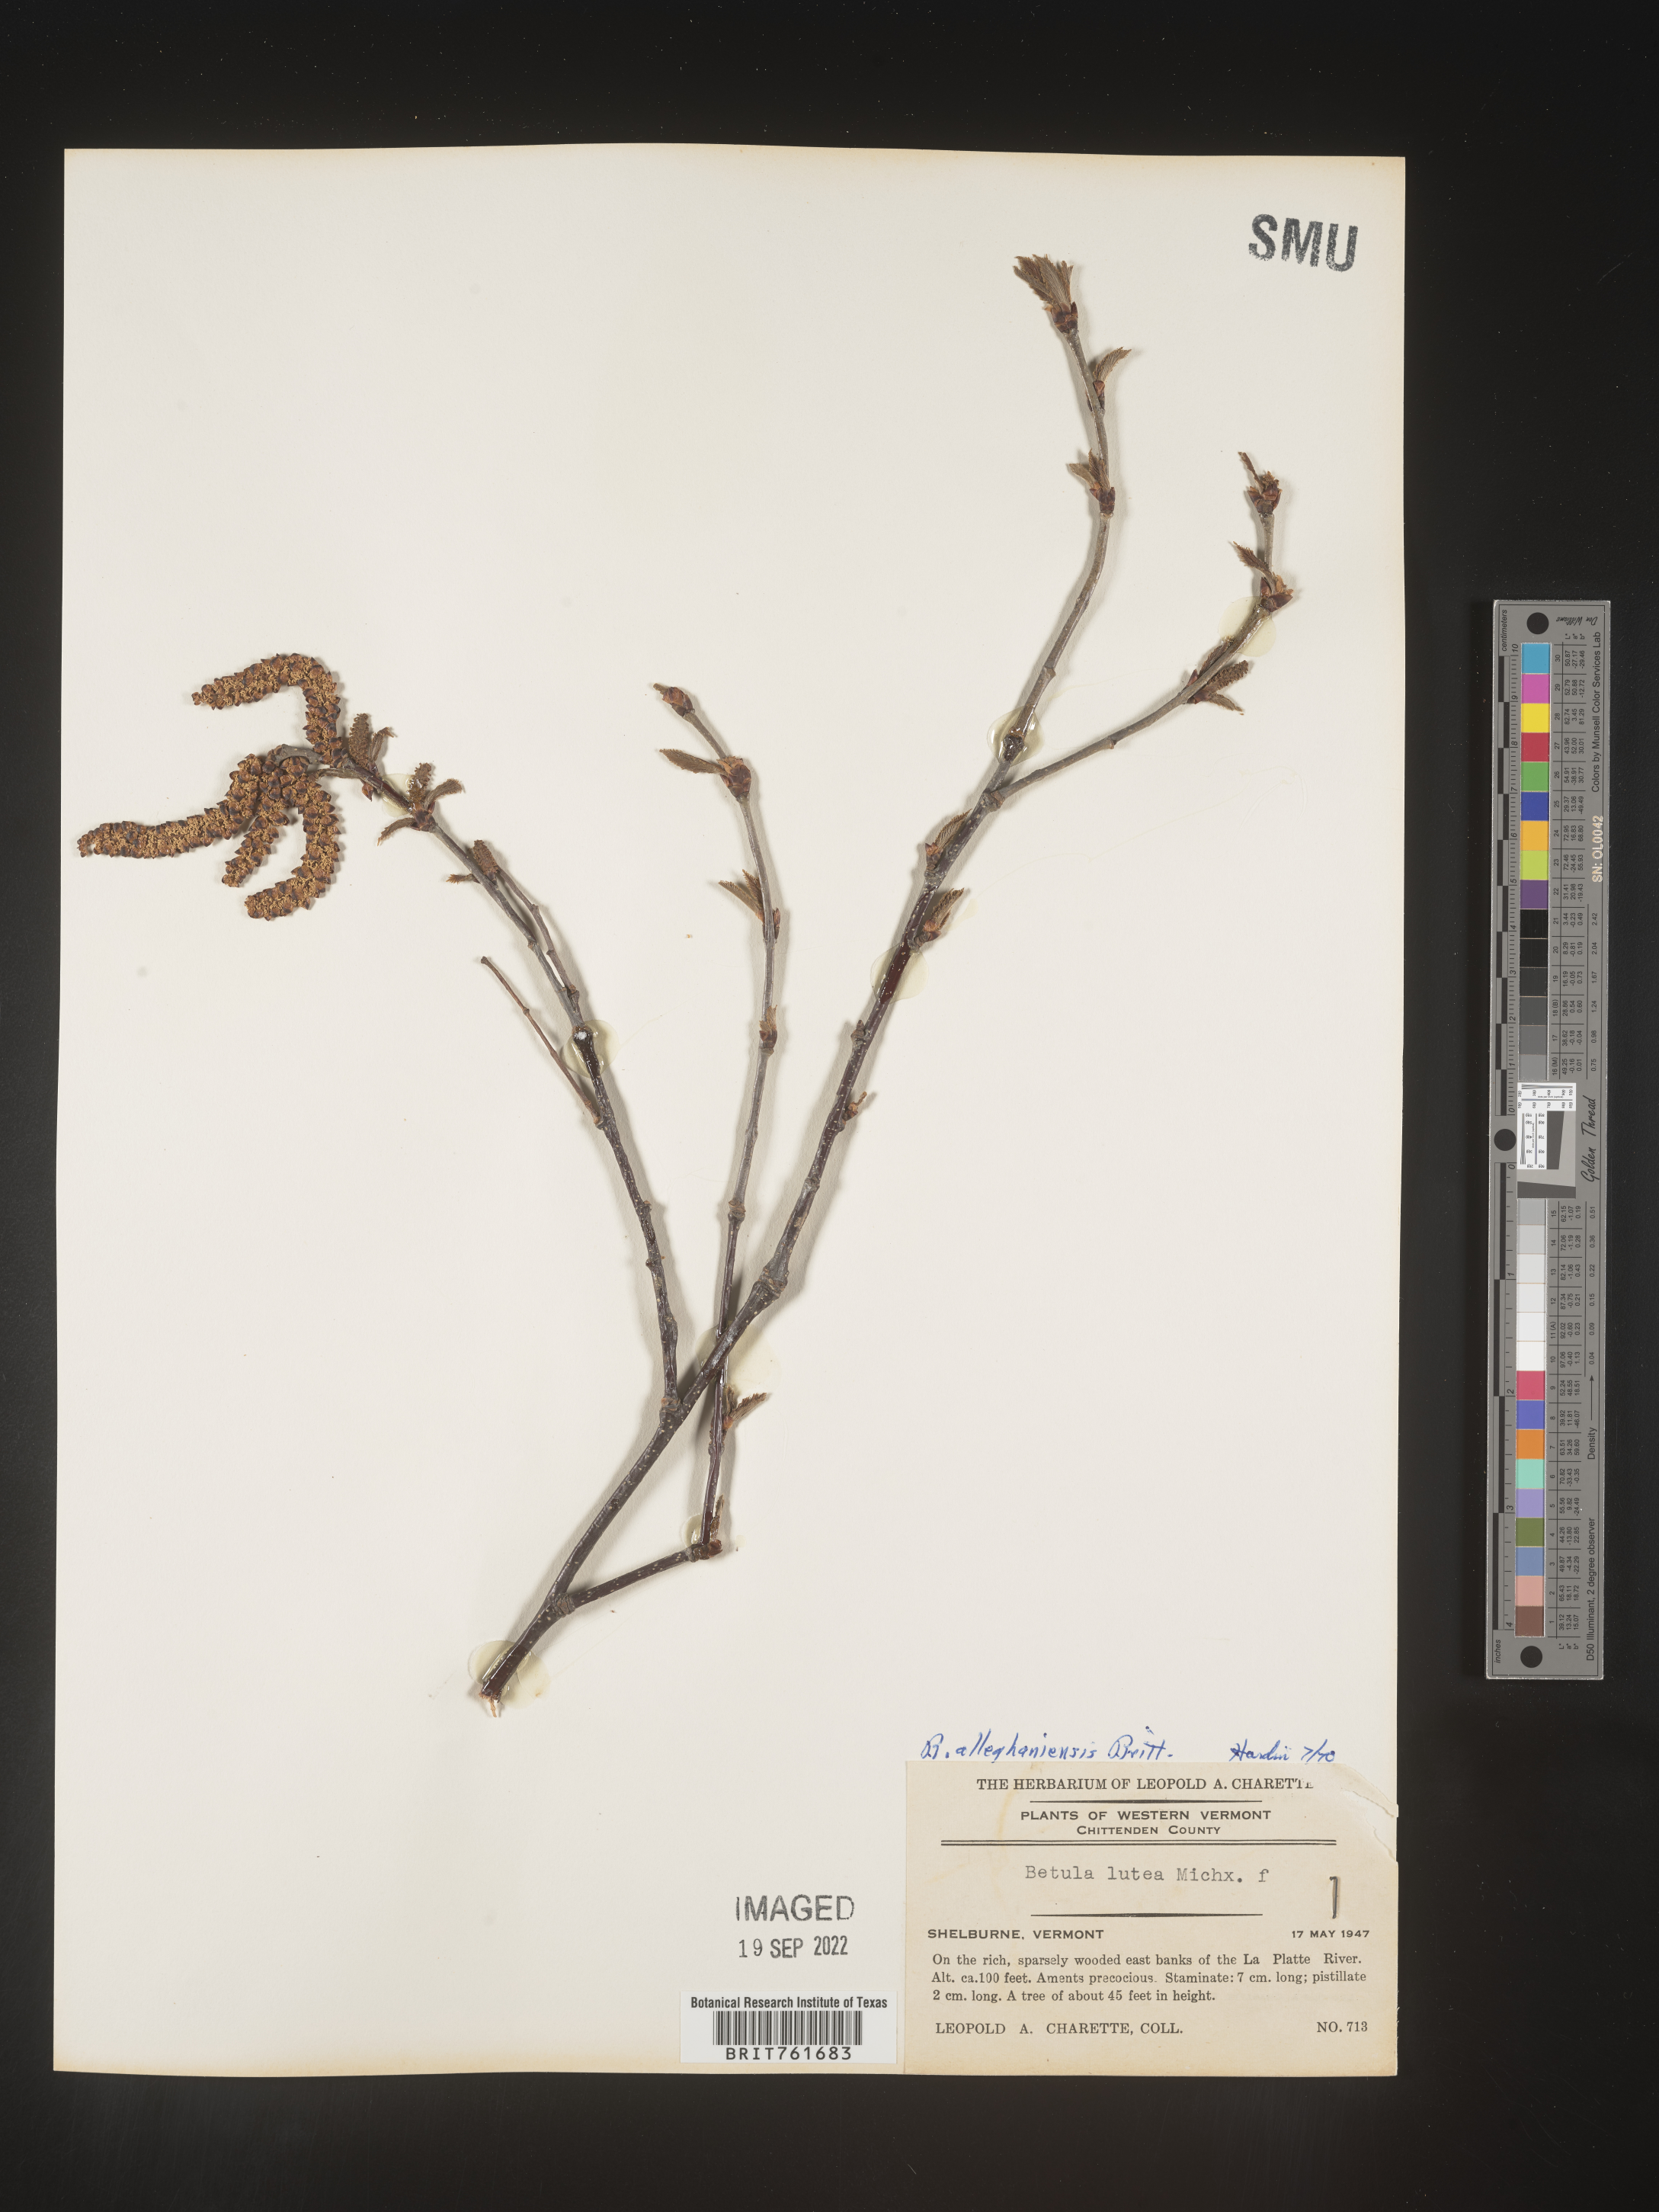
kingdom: Plantae
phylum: Tracheophyta
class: Magnoliopsida
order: Fagales
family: Betulaceae
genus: Betula
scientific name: Betula alleghaniensis
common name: Yellow birch
